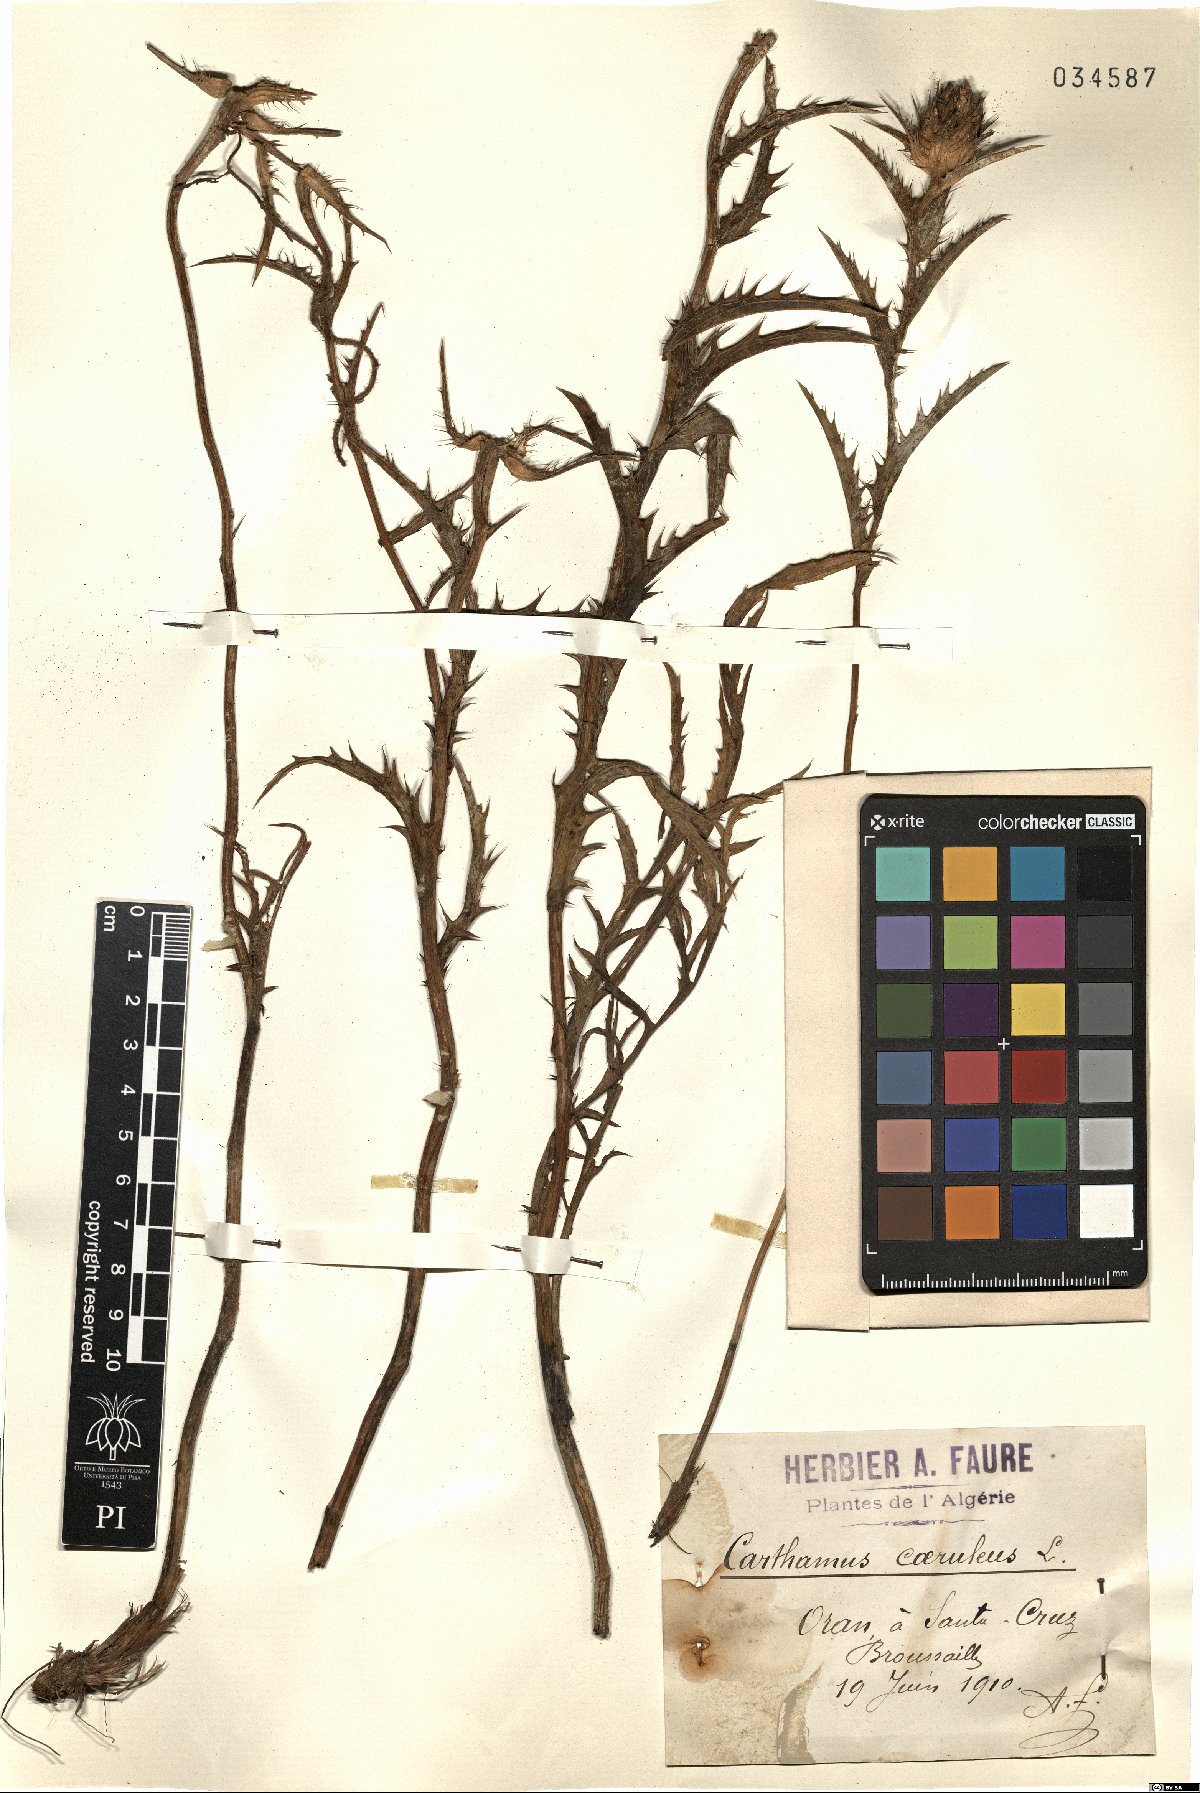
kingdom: Plantae
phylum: Tracheophyta
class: Magnoliopsida
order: Asterales
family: Asteraceae
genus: Carduncellus
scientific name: Carduncellus caeruleus
